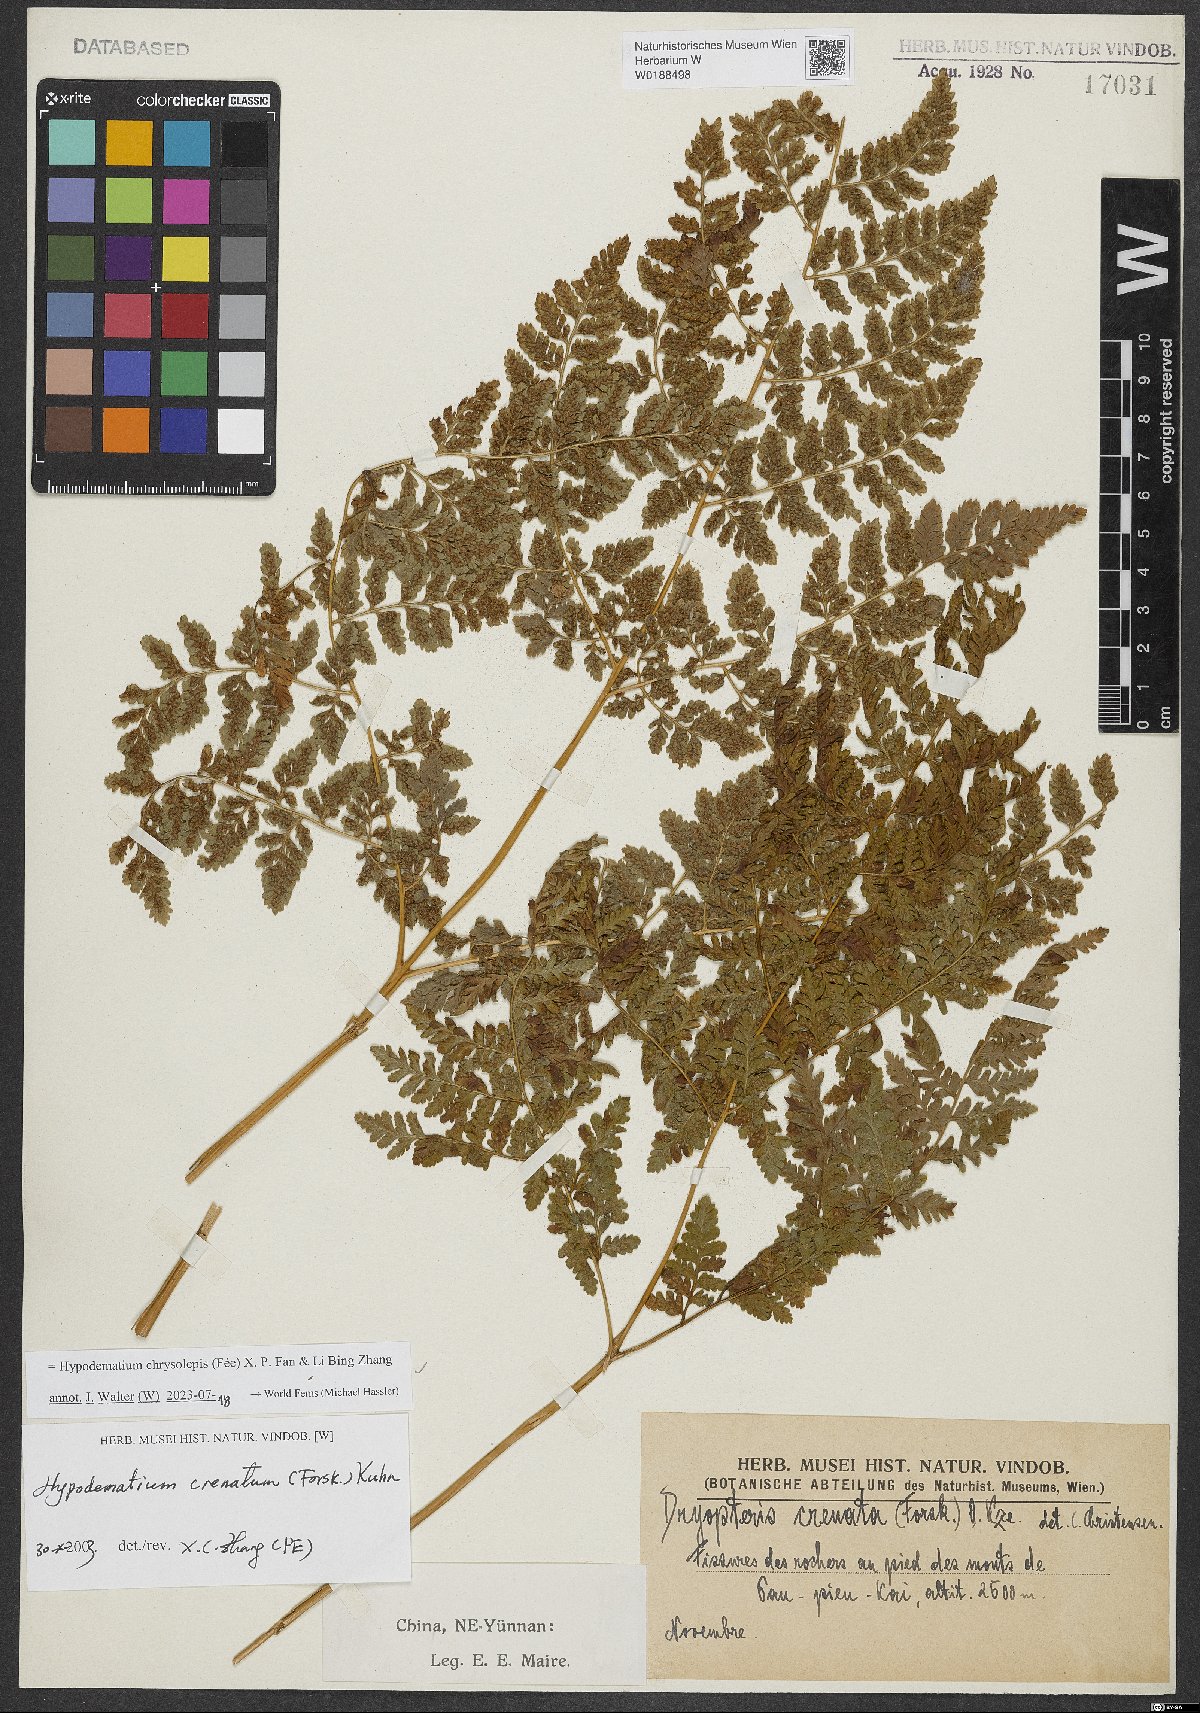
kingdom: Plantae
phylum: Tracheophyta
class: Polypodiopsida
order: Polypodiales
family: Hypodematiaceae
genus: Hypodematium
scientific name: Hypodematium chrysolepis
